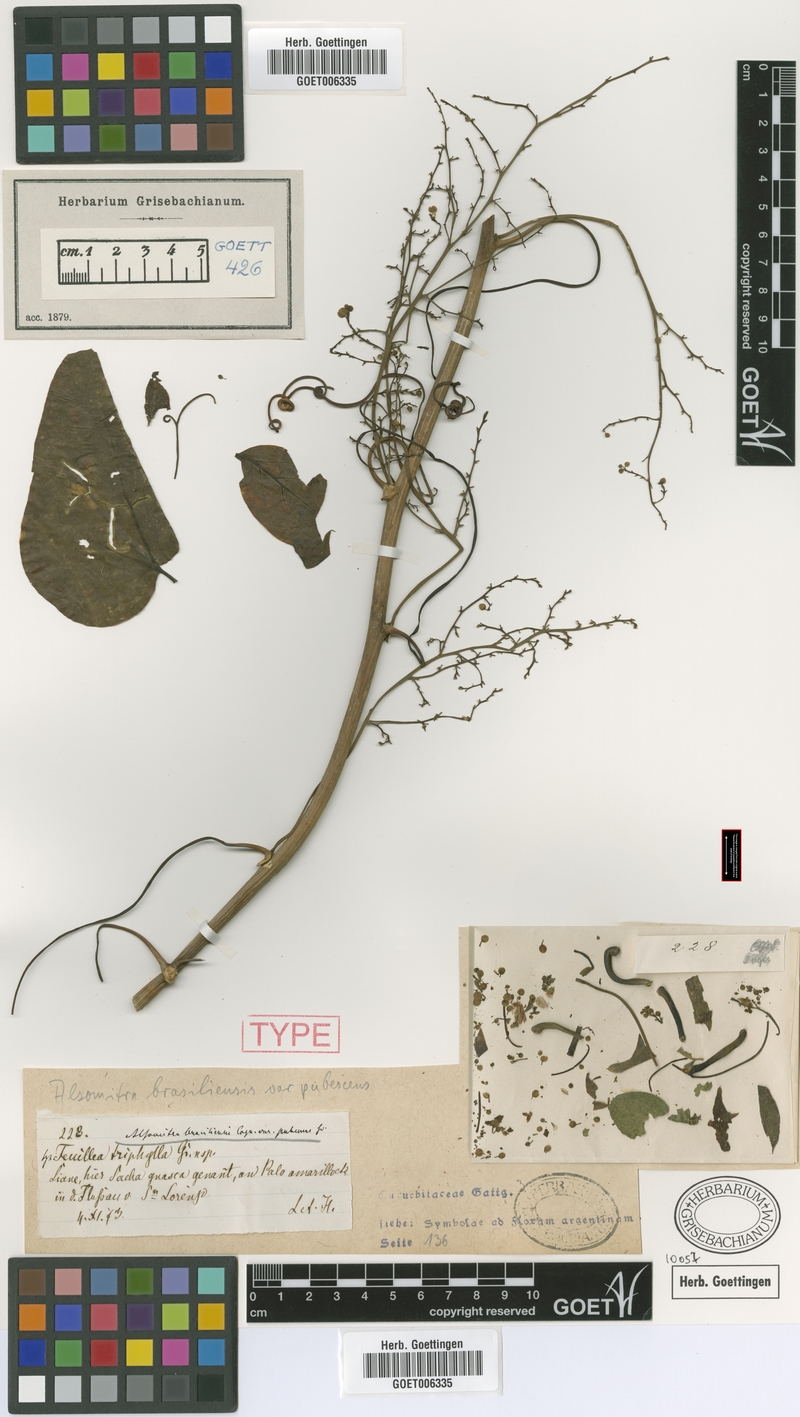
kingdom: Plantae
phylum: Tracheophyta
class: Magnoliopsida
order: Cucurbitales
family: Cucurbitaceae
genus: Siolmatra
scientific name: Siolmatra brasiliensis
